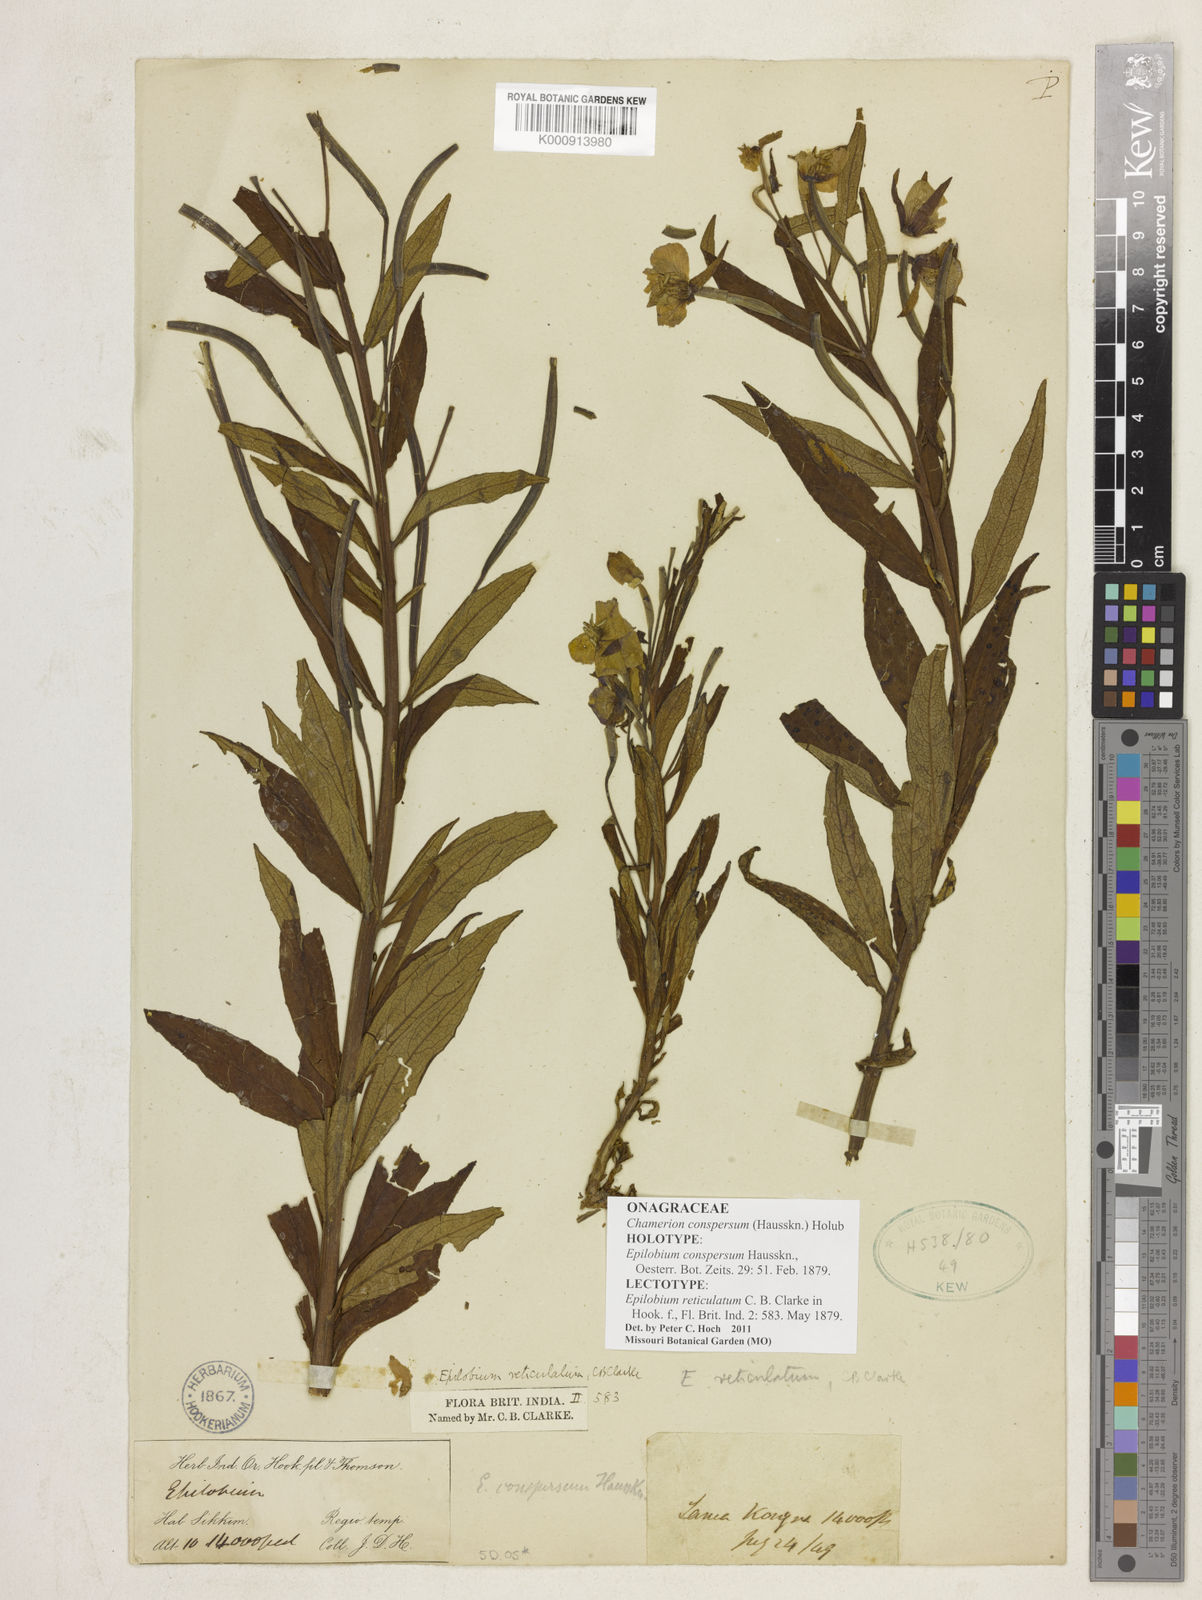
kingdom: Plantae
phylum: Tracheophyta
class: Magnoliopsida
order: Myrtales
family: Onagraceae
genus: Chamaenerion
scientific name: Chamaenerion conspersum
